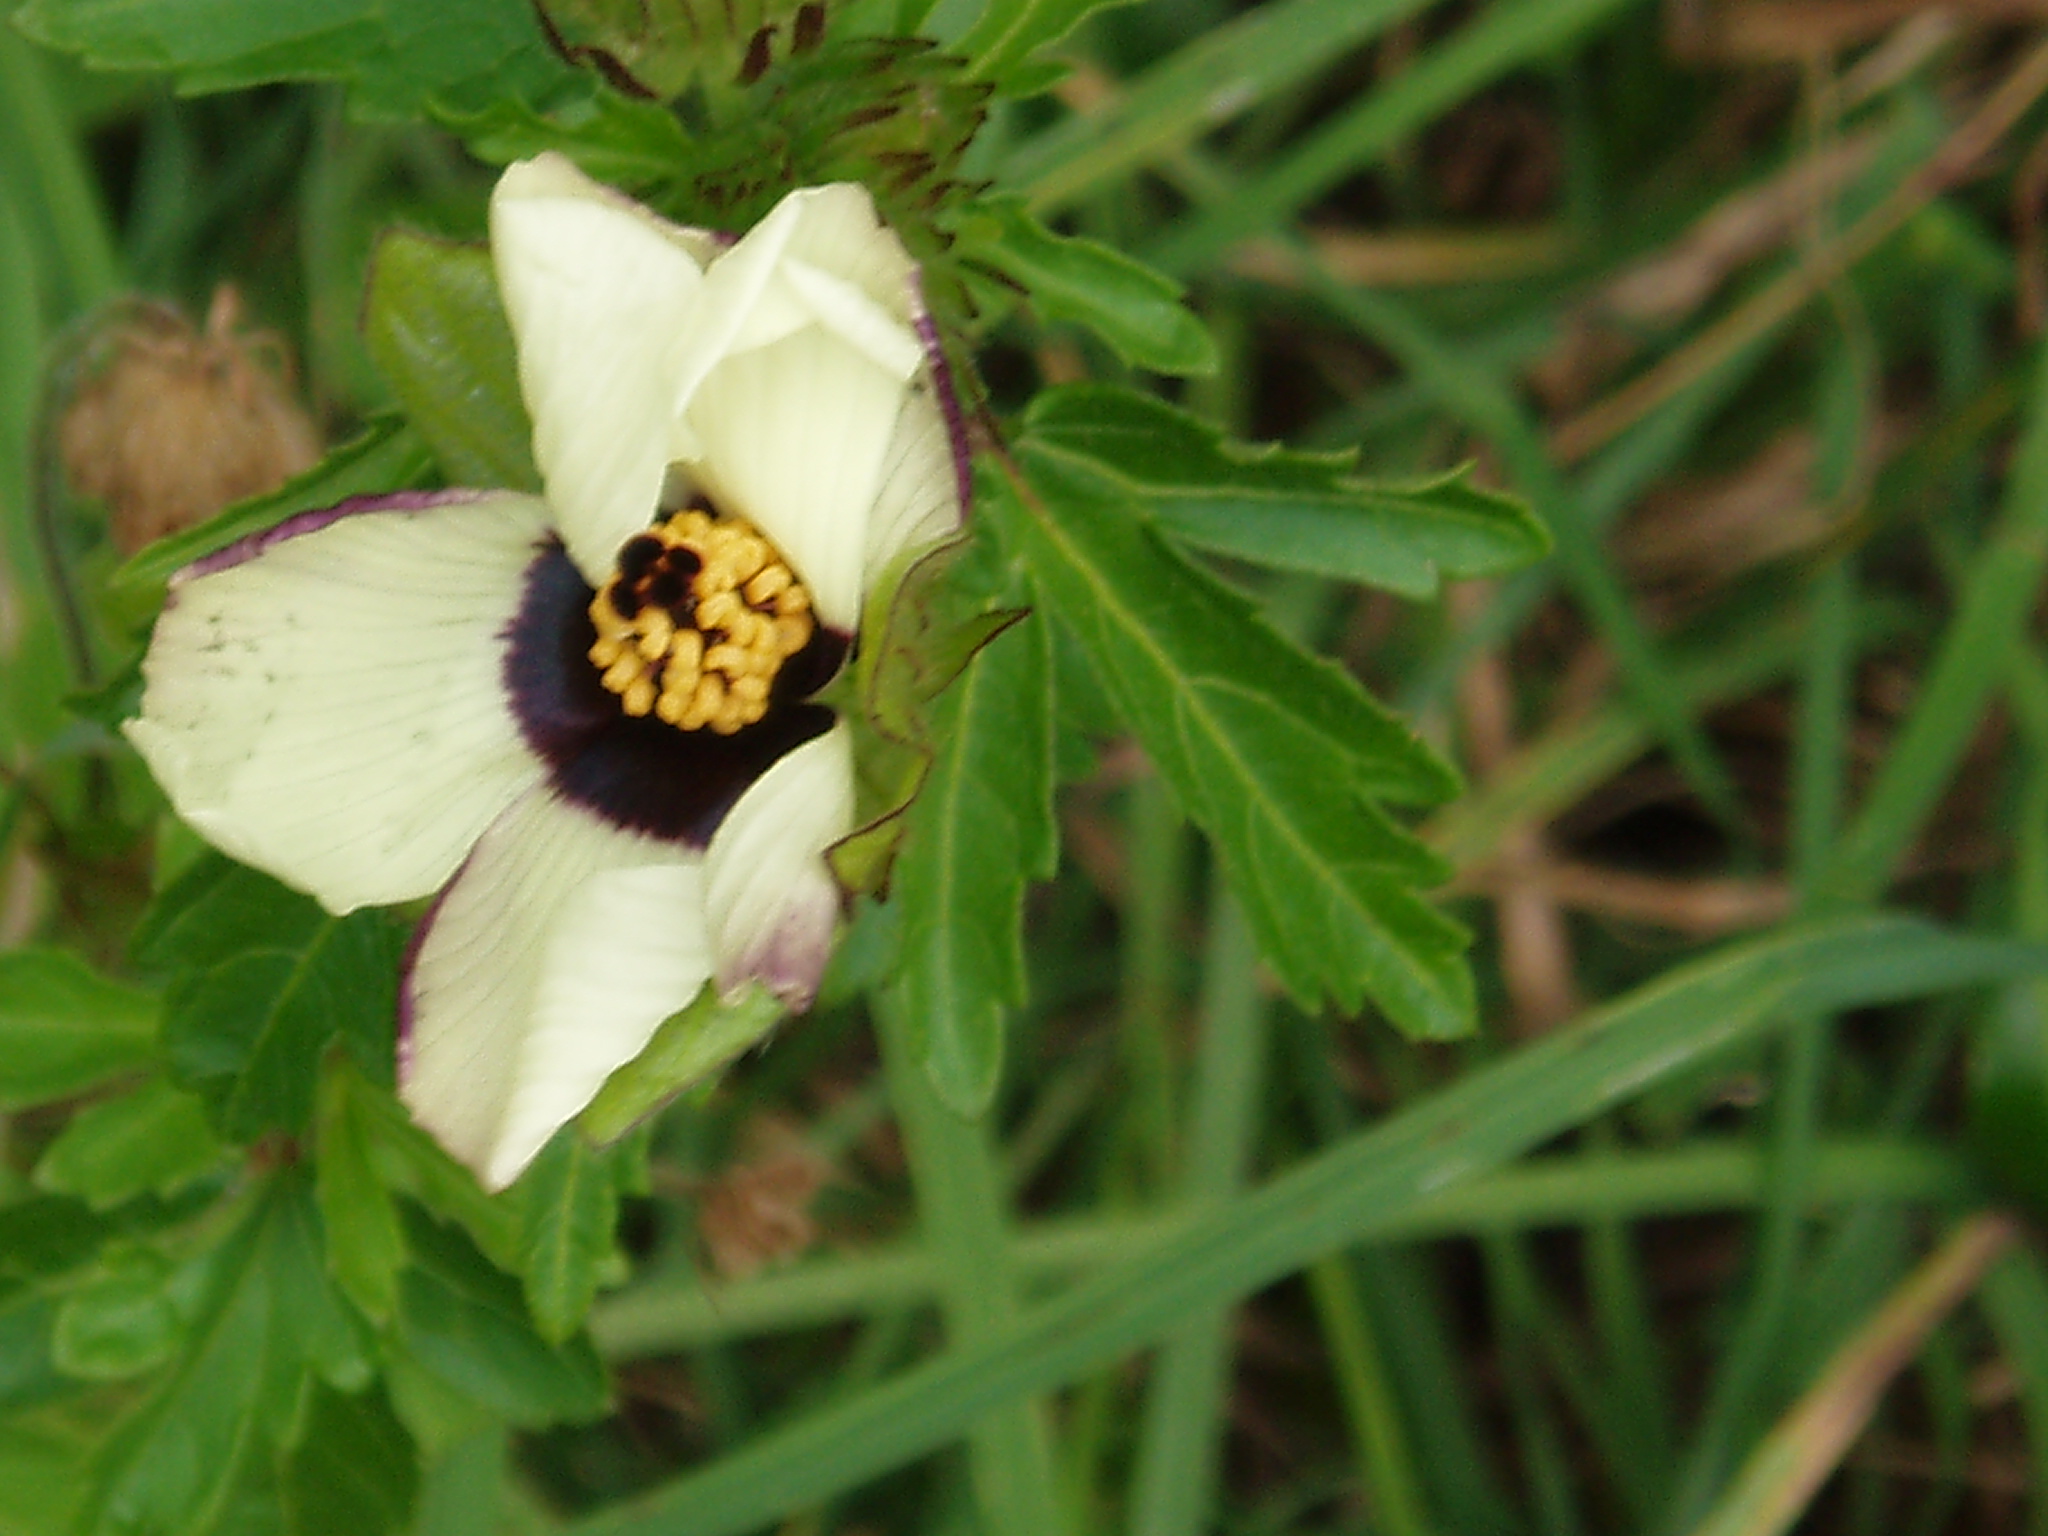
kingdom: Plantae
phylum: Tracheophyta
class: Magnoliopsida
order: Malvales
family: Malvaceae
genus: Hibiscus
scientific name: Hibiscus trionum
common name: Bladder ketmia
